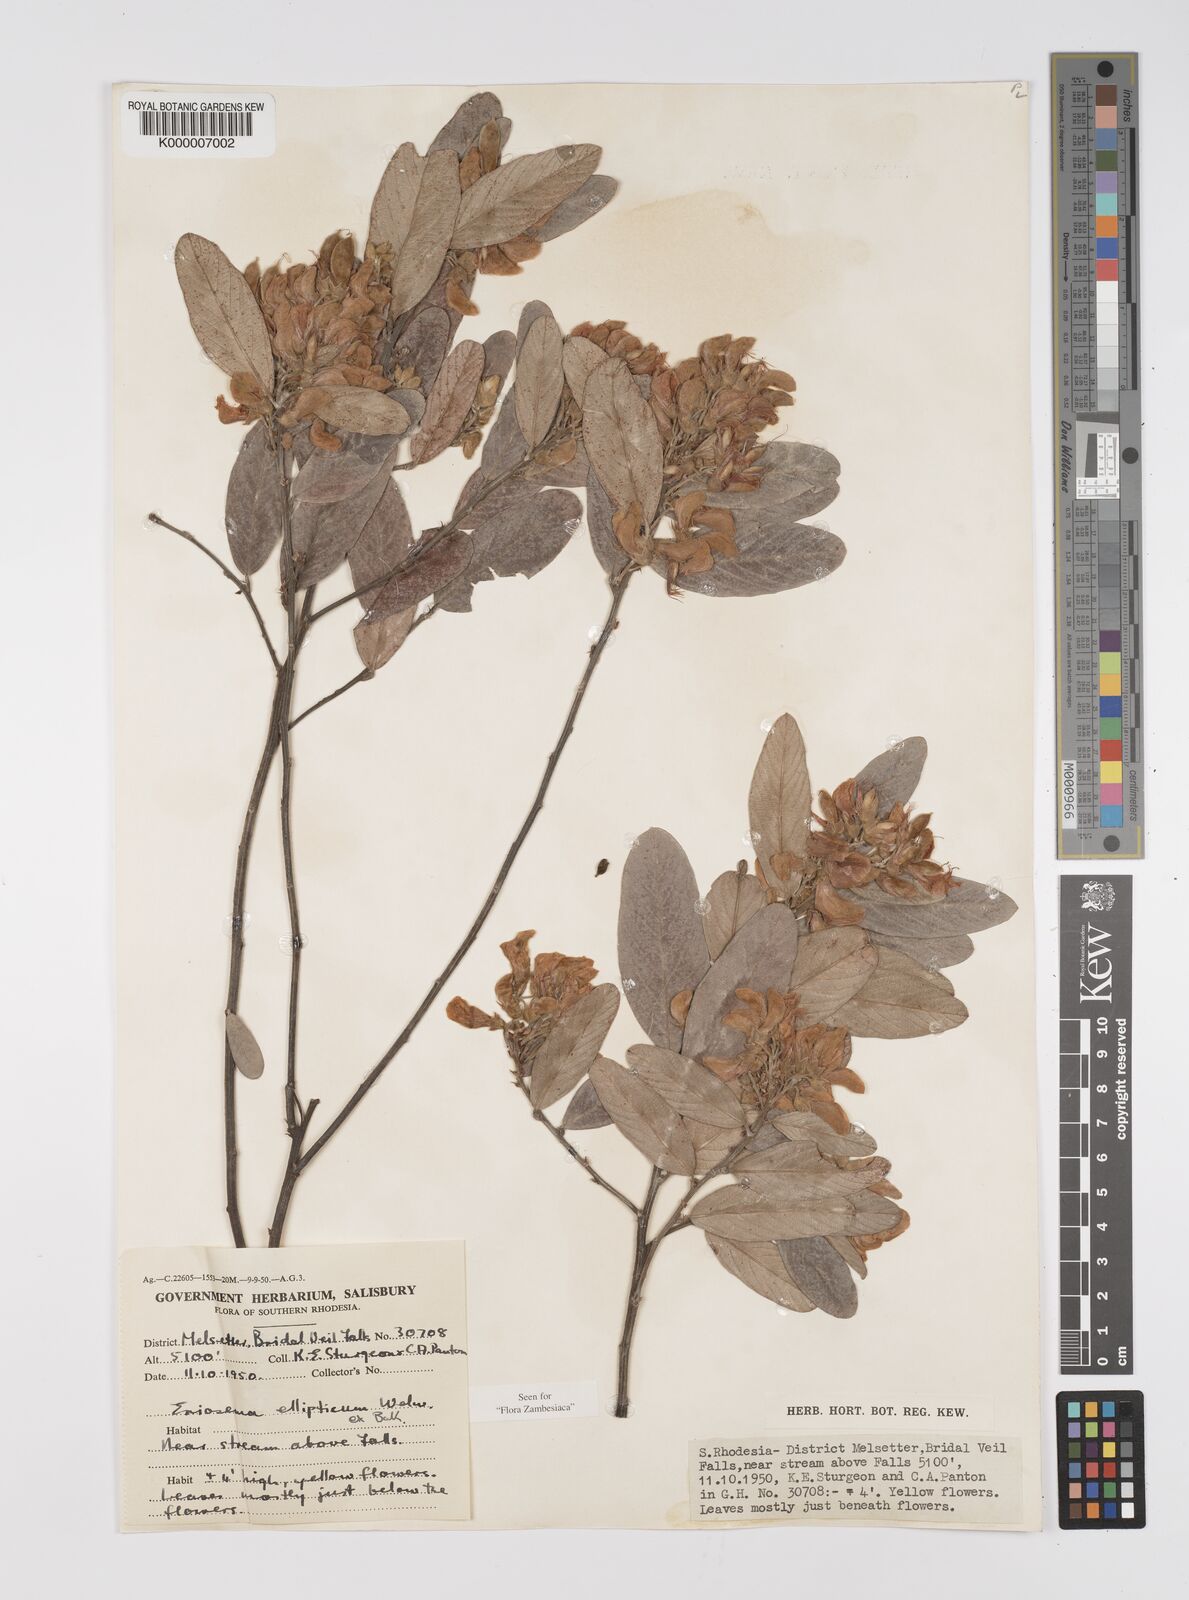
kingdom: Plantae
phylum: Tracheophyta
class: Magnoliopsida
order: Fabales
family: Fabaceae
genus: Eriosema
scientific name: Eriosema ellipticum
